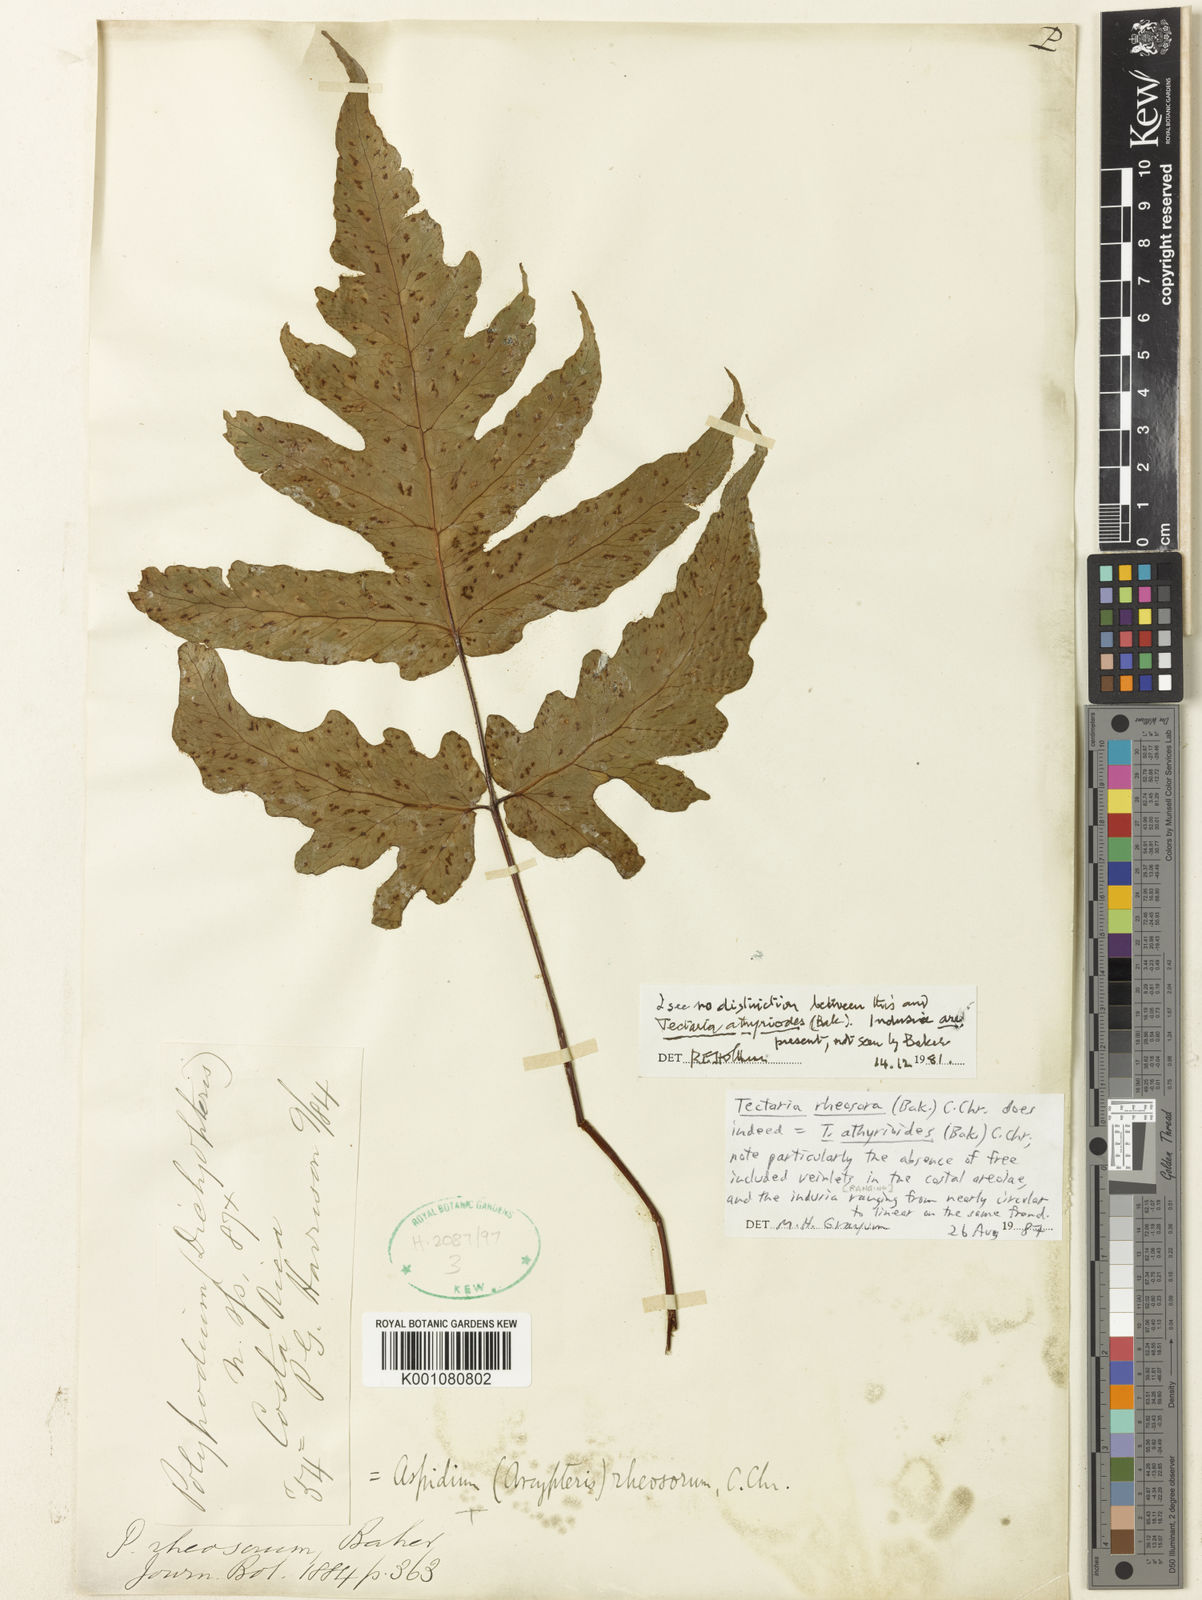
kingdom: Plantae
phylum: Tracheophyta
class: Polypodiopsida
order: Polypodiales
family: Tectariaceae
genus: Tectaria
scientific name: Tectaria antioquiana
